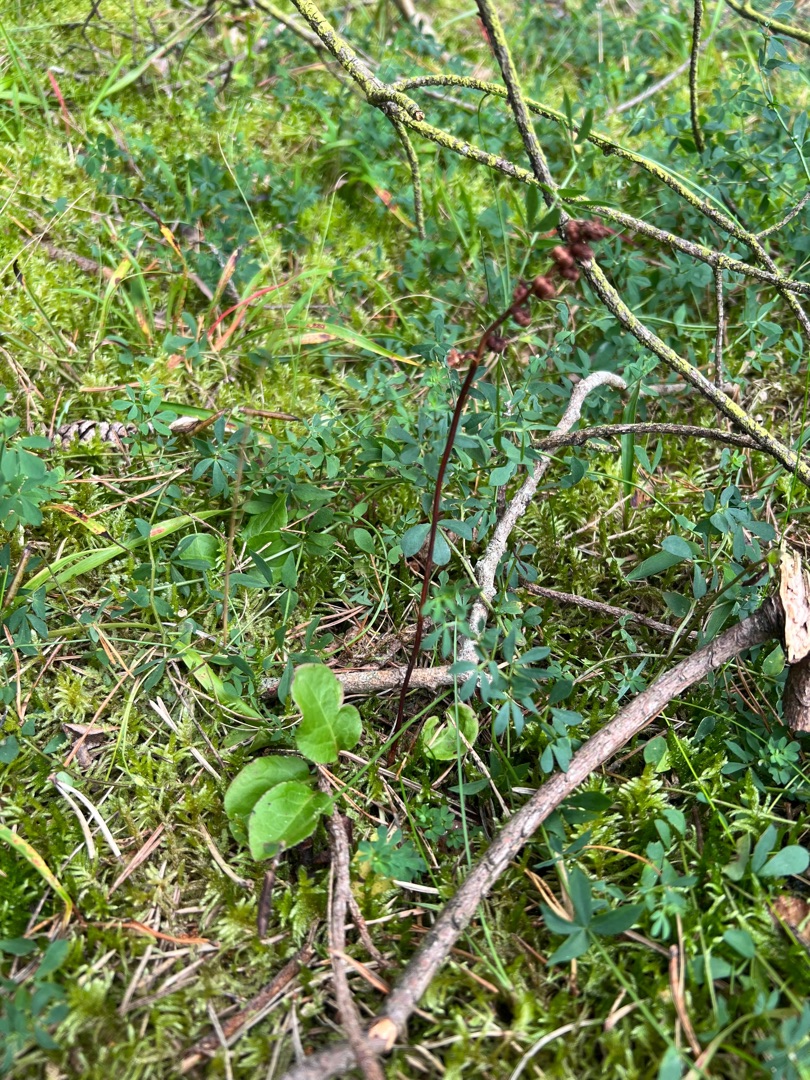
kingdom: Plantae
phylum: Tracheophyta
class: Magnoliopsida
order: Ericales
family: Ericaceae
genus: Pyrola
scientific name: Pyrola minor
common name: Liden vintergrøn
